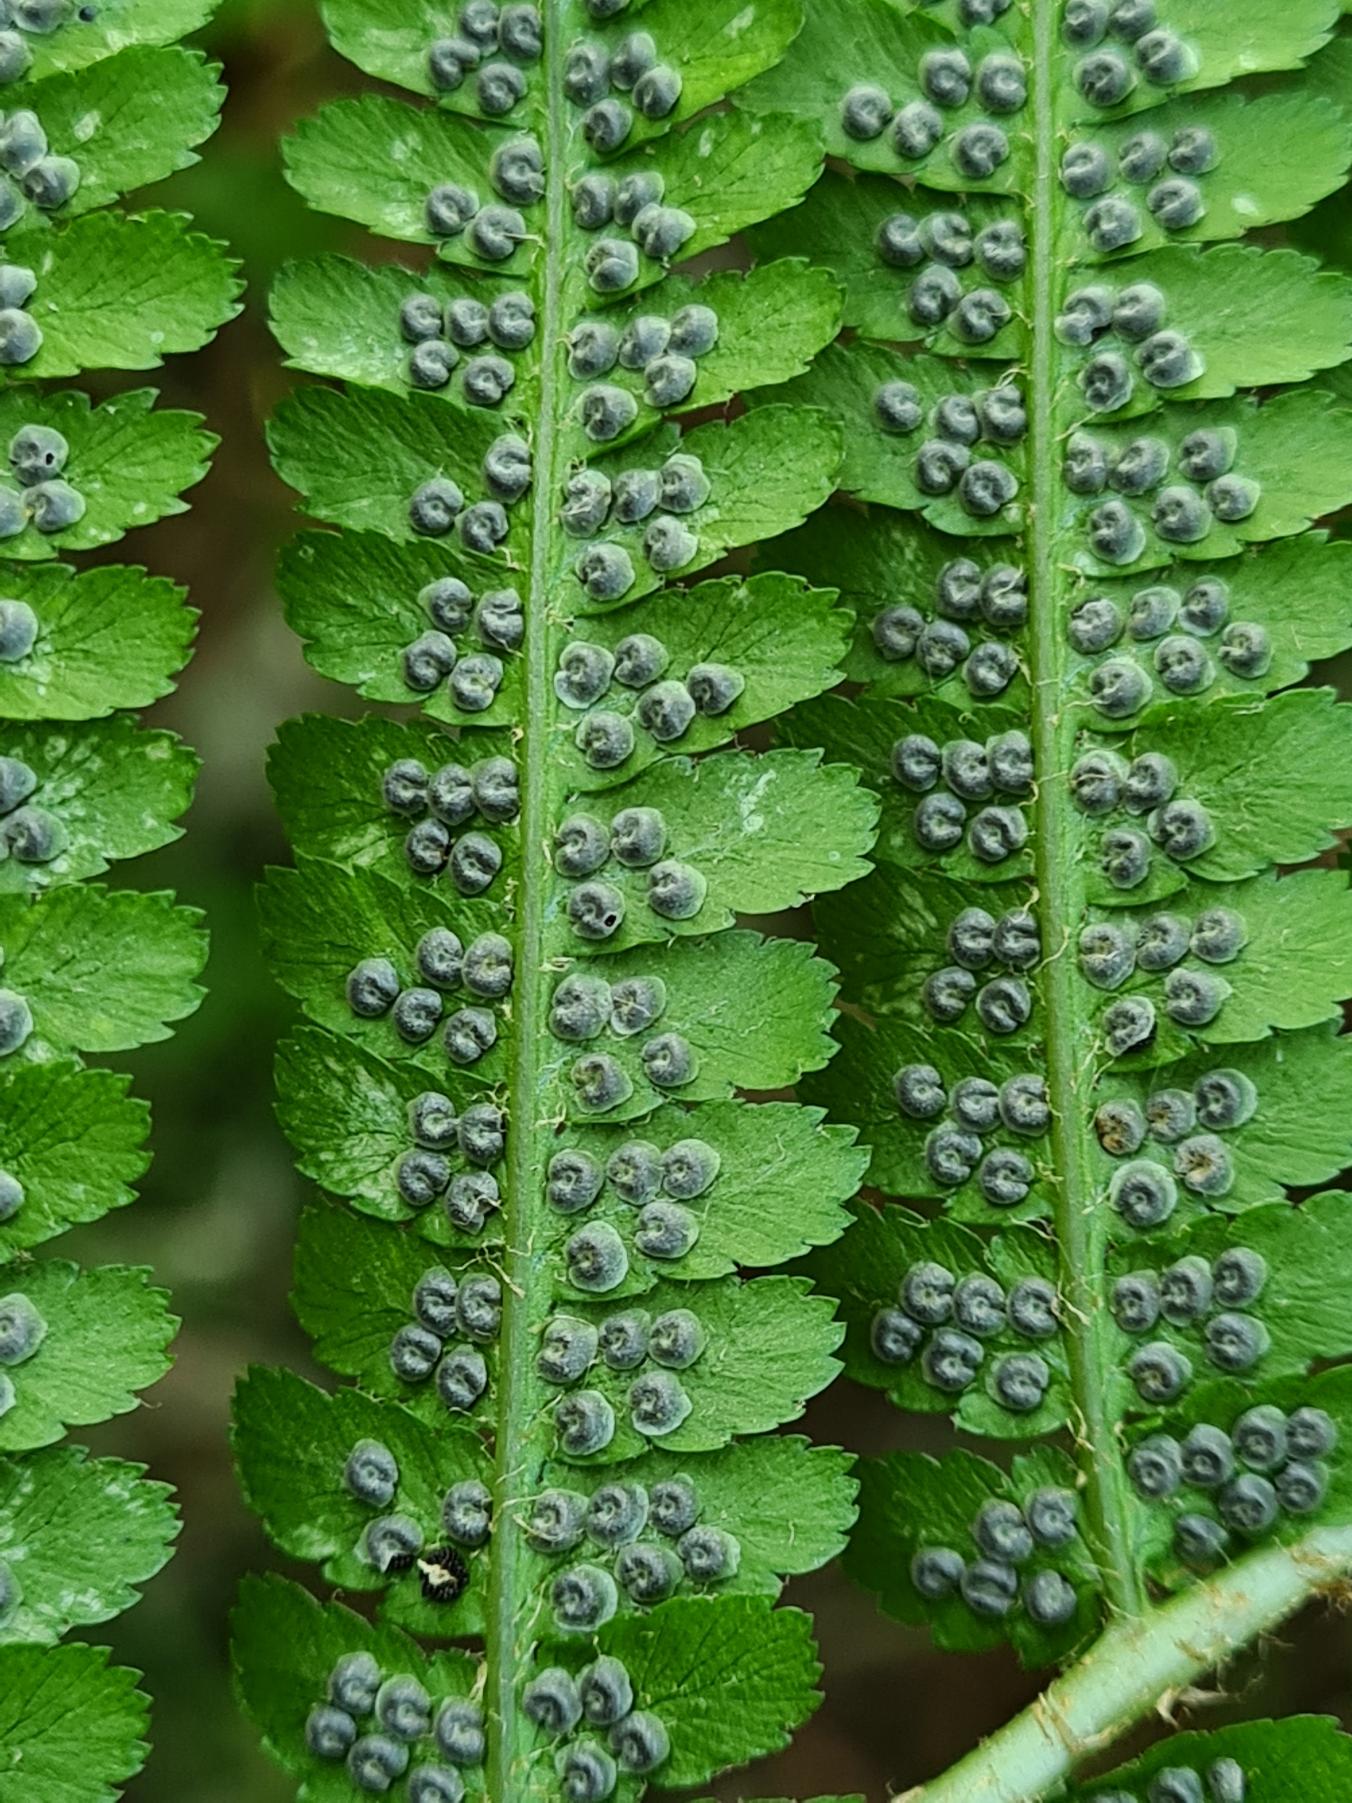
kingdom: Plantae
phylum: Tracheophyta
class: Polypodiopsida
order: Polypodiales
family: Dryopteridaceae
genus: Dryopteris
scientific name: Dryopteris filix-mas
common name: Almindelig mangeløv
